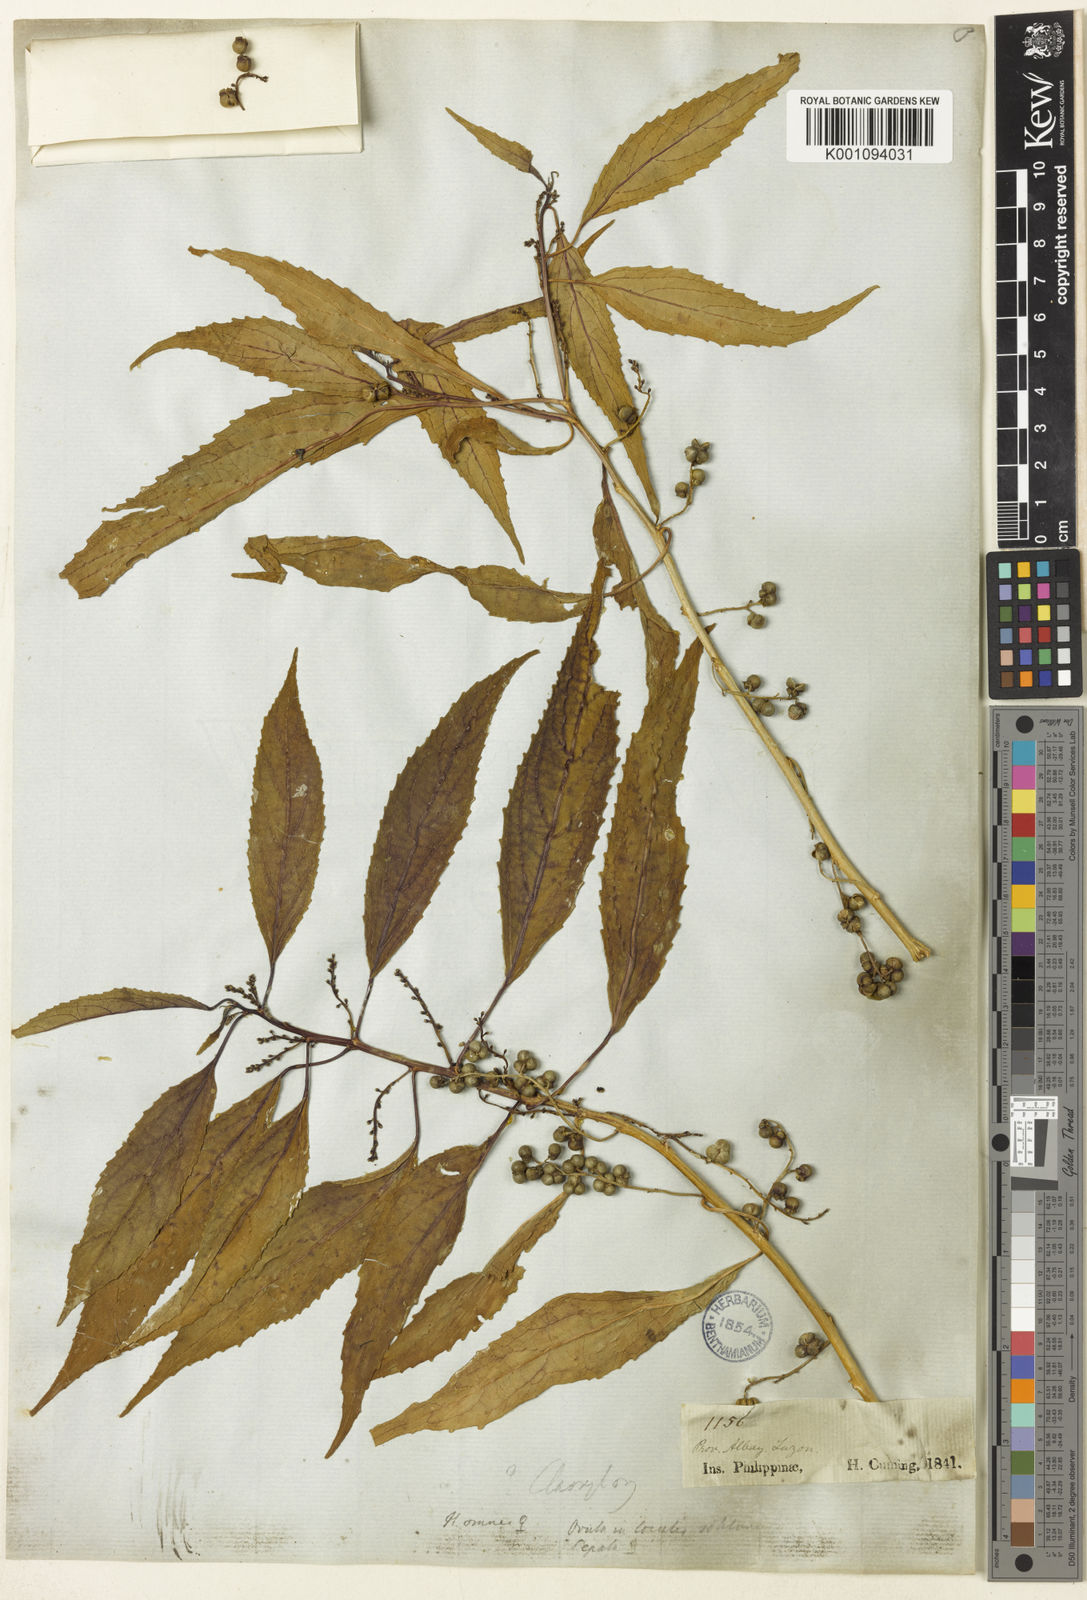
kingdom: Plantae
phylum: Tracheophyta
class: Magnoliopsida
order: Malpighiales
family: Euphorbiaceae
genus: Claoxylon
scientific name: Claoxylon subviride
